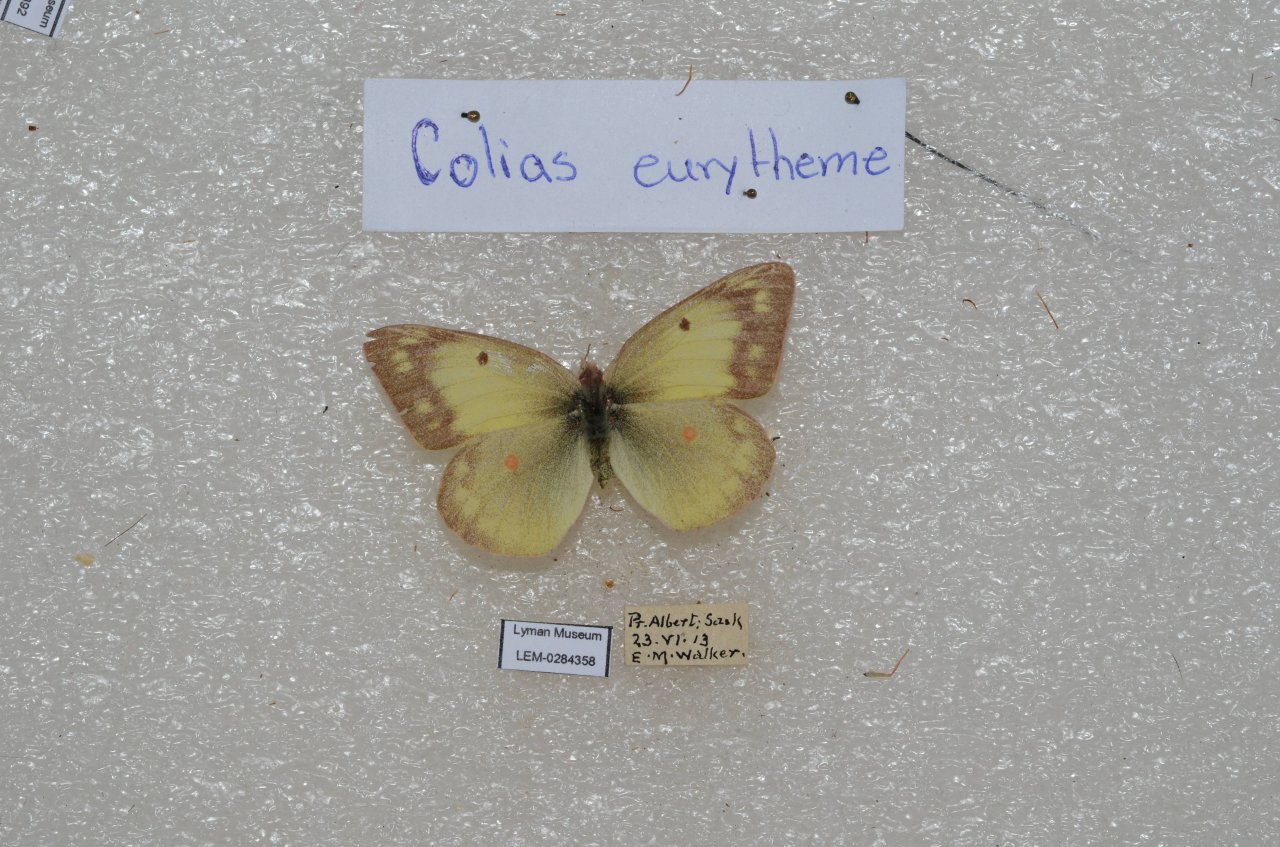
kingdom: Animalia
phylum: Arthropoda
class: Insecta
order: Lepidoptera
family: Pieridae
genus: Colias
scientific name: Colias philodice
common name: Clouded Sulphur
